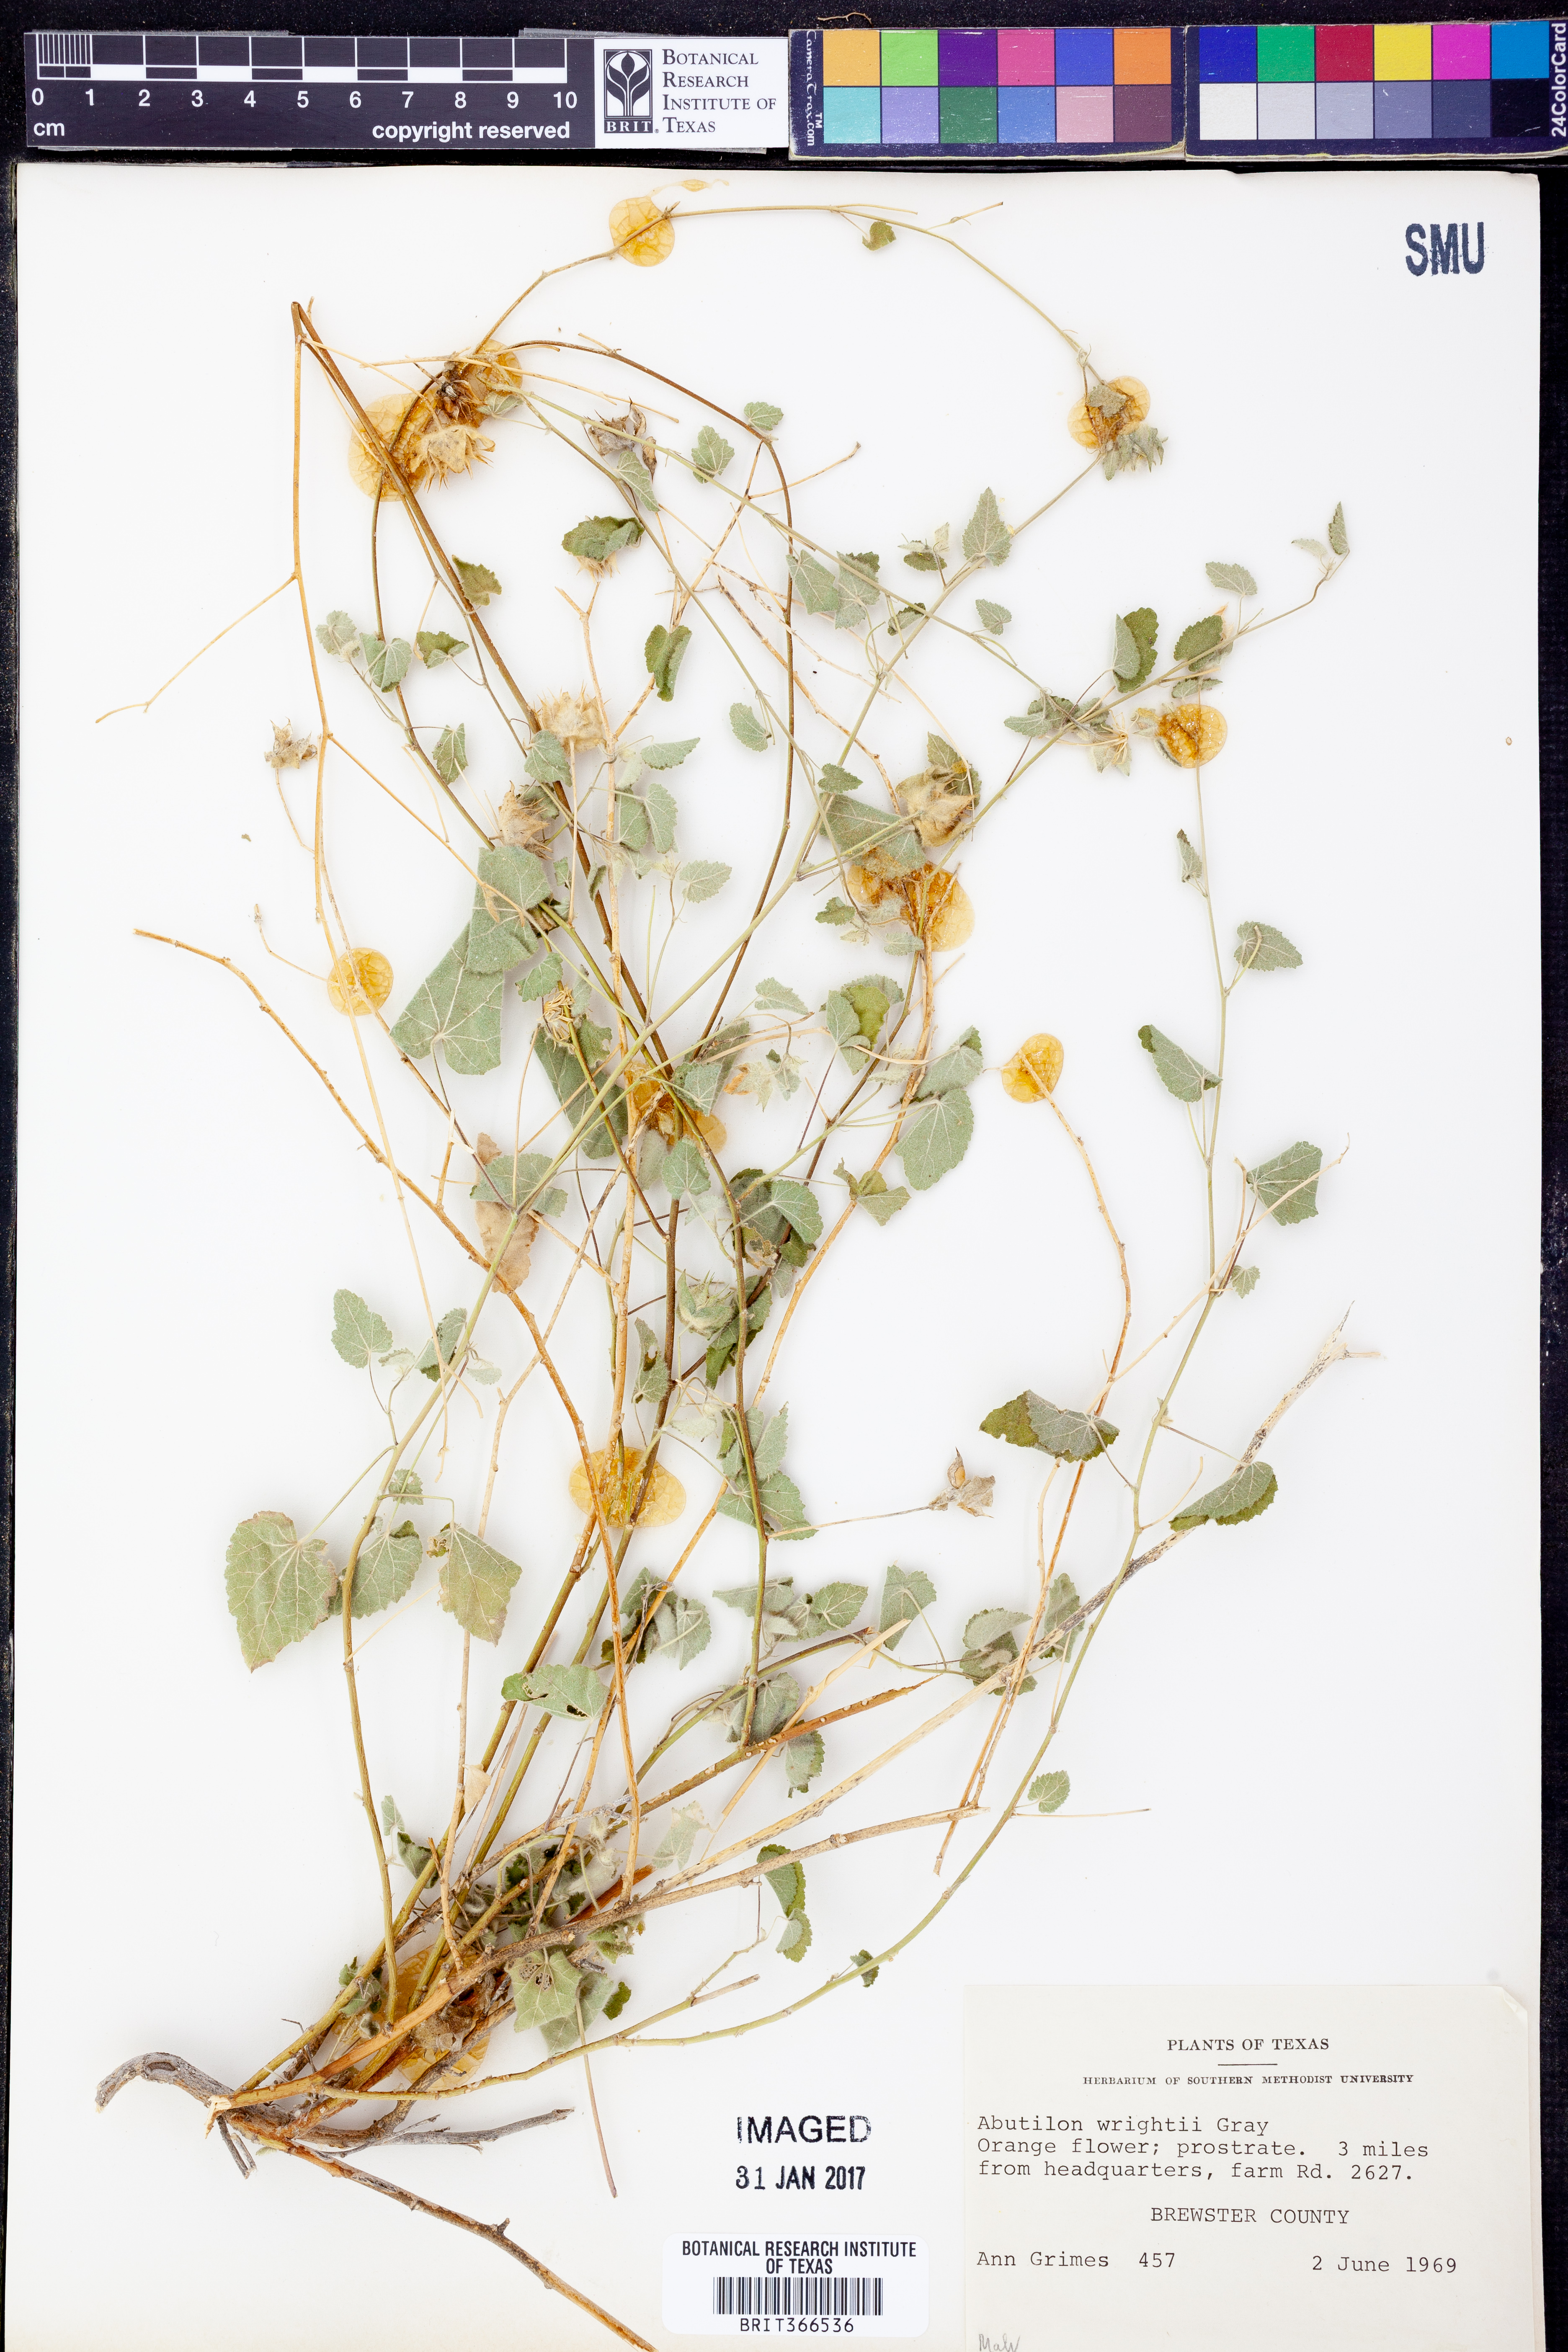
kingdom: Plantae
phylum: Tracheophyta
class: Magnoliopsida
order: Malvales
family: Malvaceae
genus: Abutilon
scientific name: Abutilon wrightii
